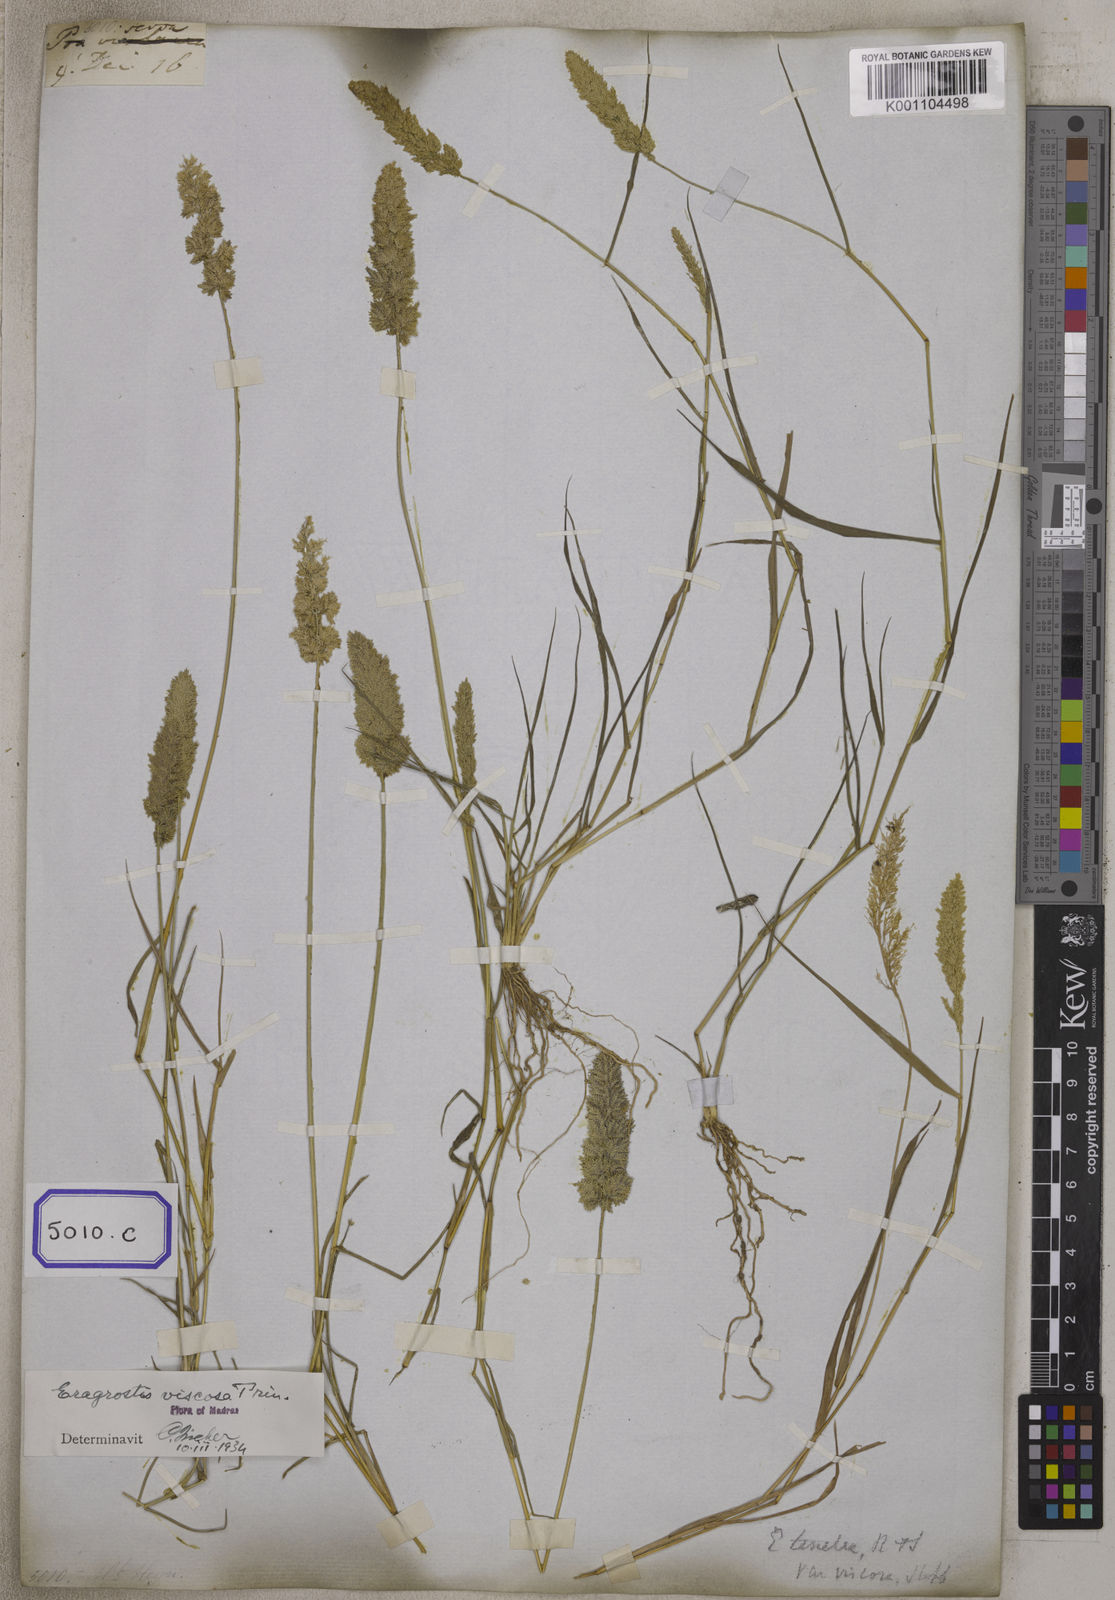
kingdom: Plantae
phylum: Tracheophyta
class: Liliopsida
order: Poales
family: Poaceae
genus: Eragrostis
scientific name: Eragrostis
